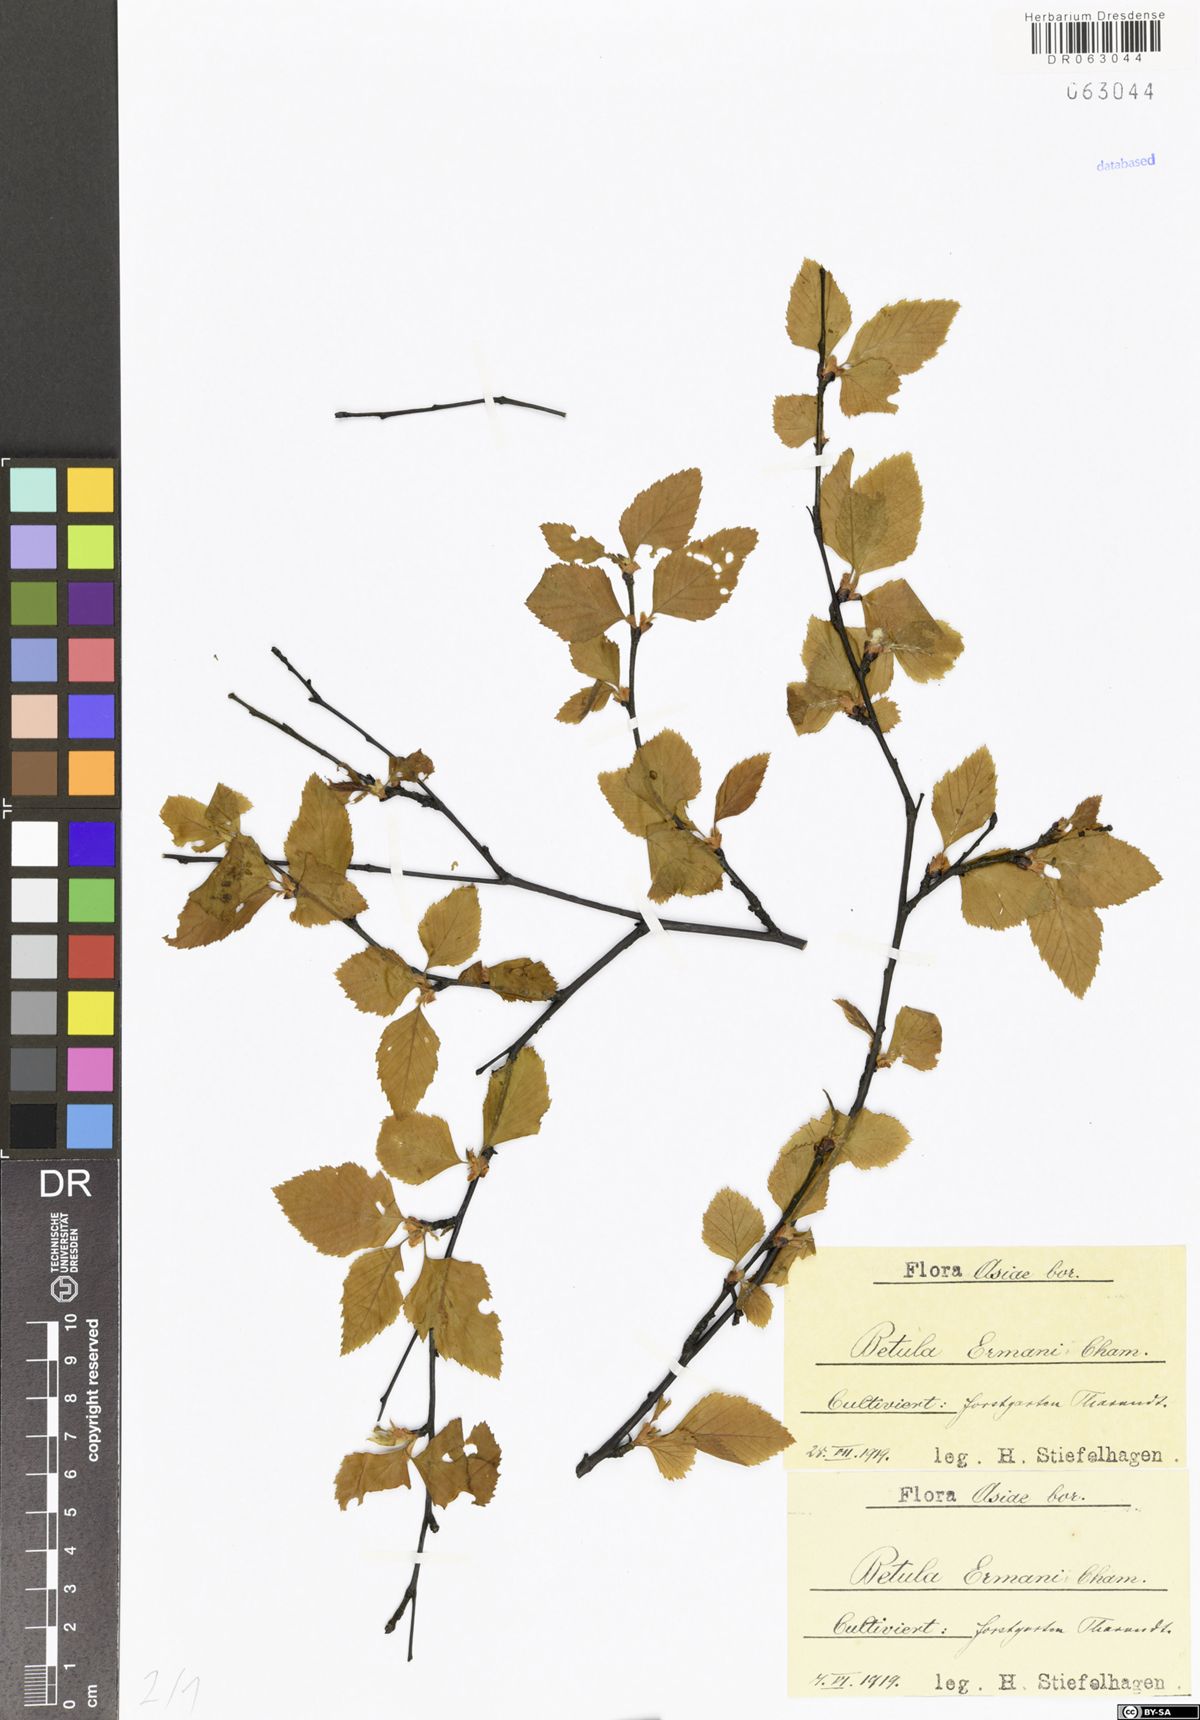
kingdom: Plantae
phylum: Tracheophyta
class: Magnoliopsida
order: Fagales
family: Betulaceae
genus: Betula
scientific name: Betula ermanii
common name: Erman's birch
